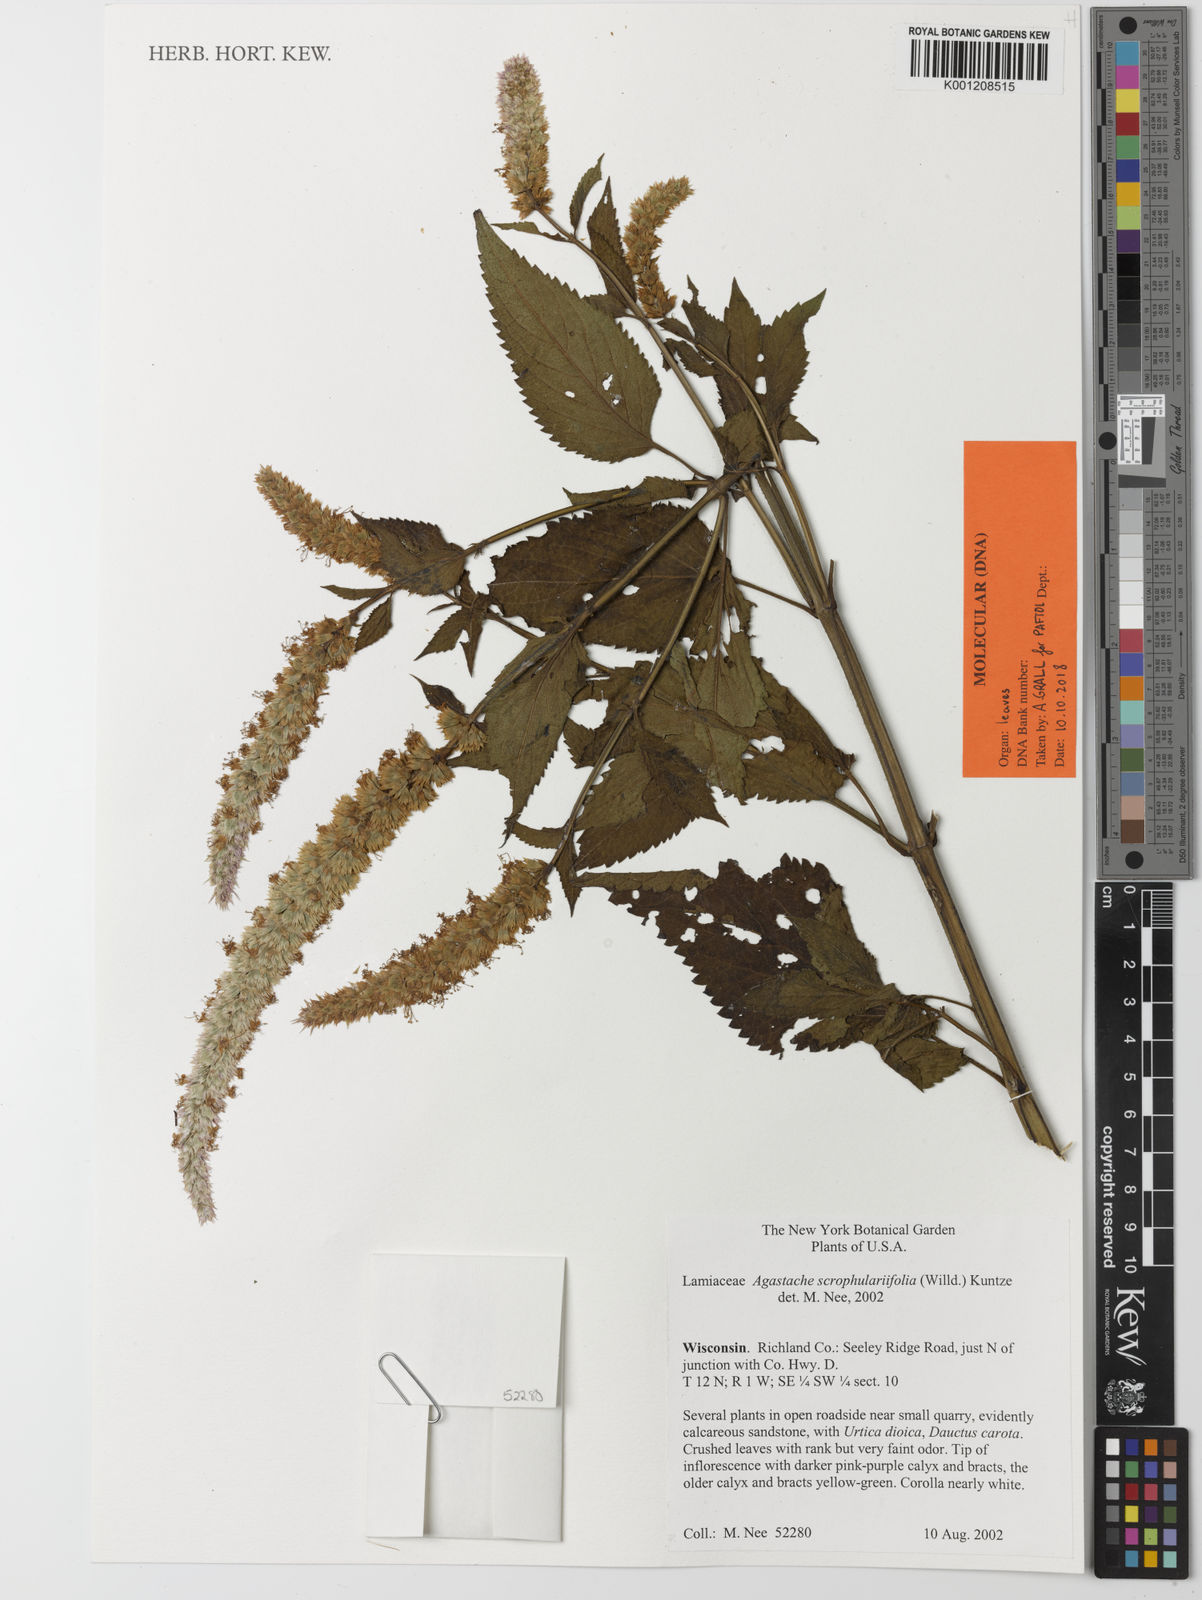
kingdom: Plantae
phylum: Tracheophyta
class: Magnoliopsida
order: Lamiales
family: Lamiaceae
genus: Agastache
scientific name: Agastache scrophulariifolia
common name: Figwort giant hyssop
